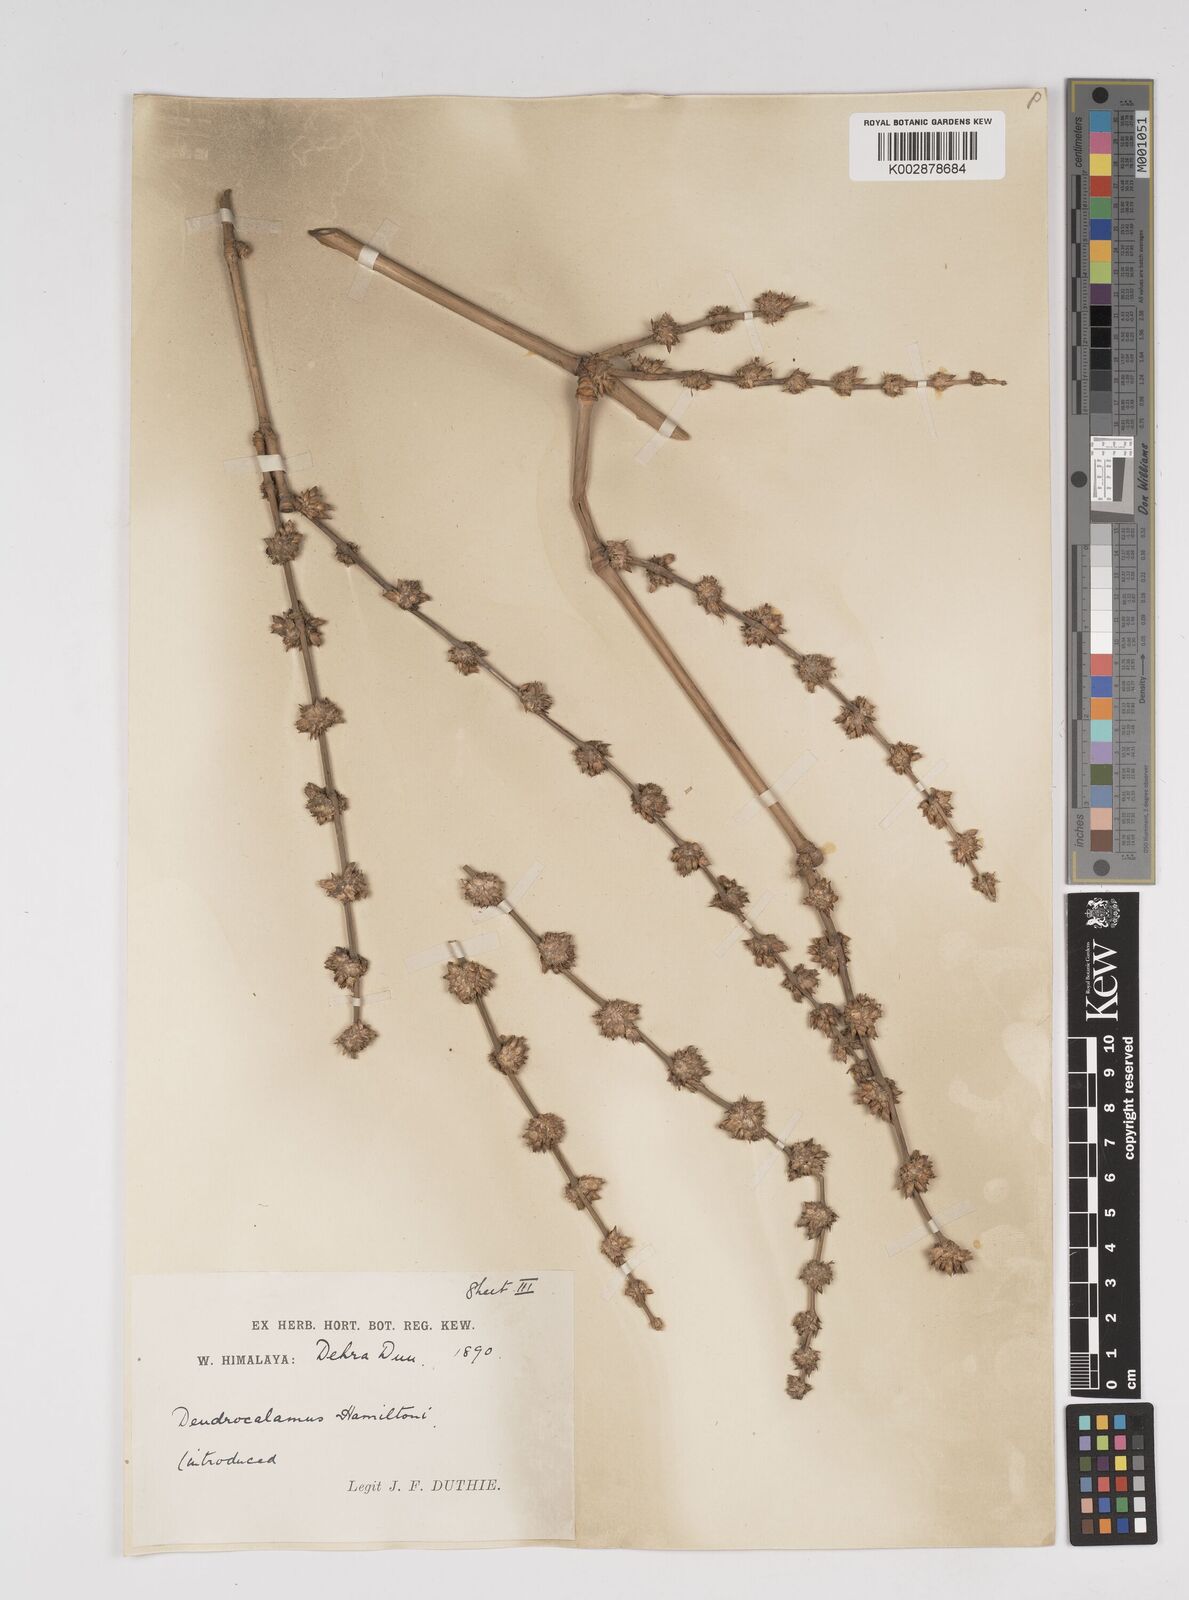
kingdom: Plantae
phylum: Tracheophyta
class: Liliopsida
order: Poales
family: Poaceae
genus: Dendrocalamus
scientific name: Dendrocalamus hamiltonii
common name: Tama bamboo
